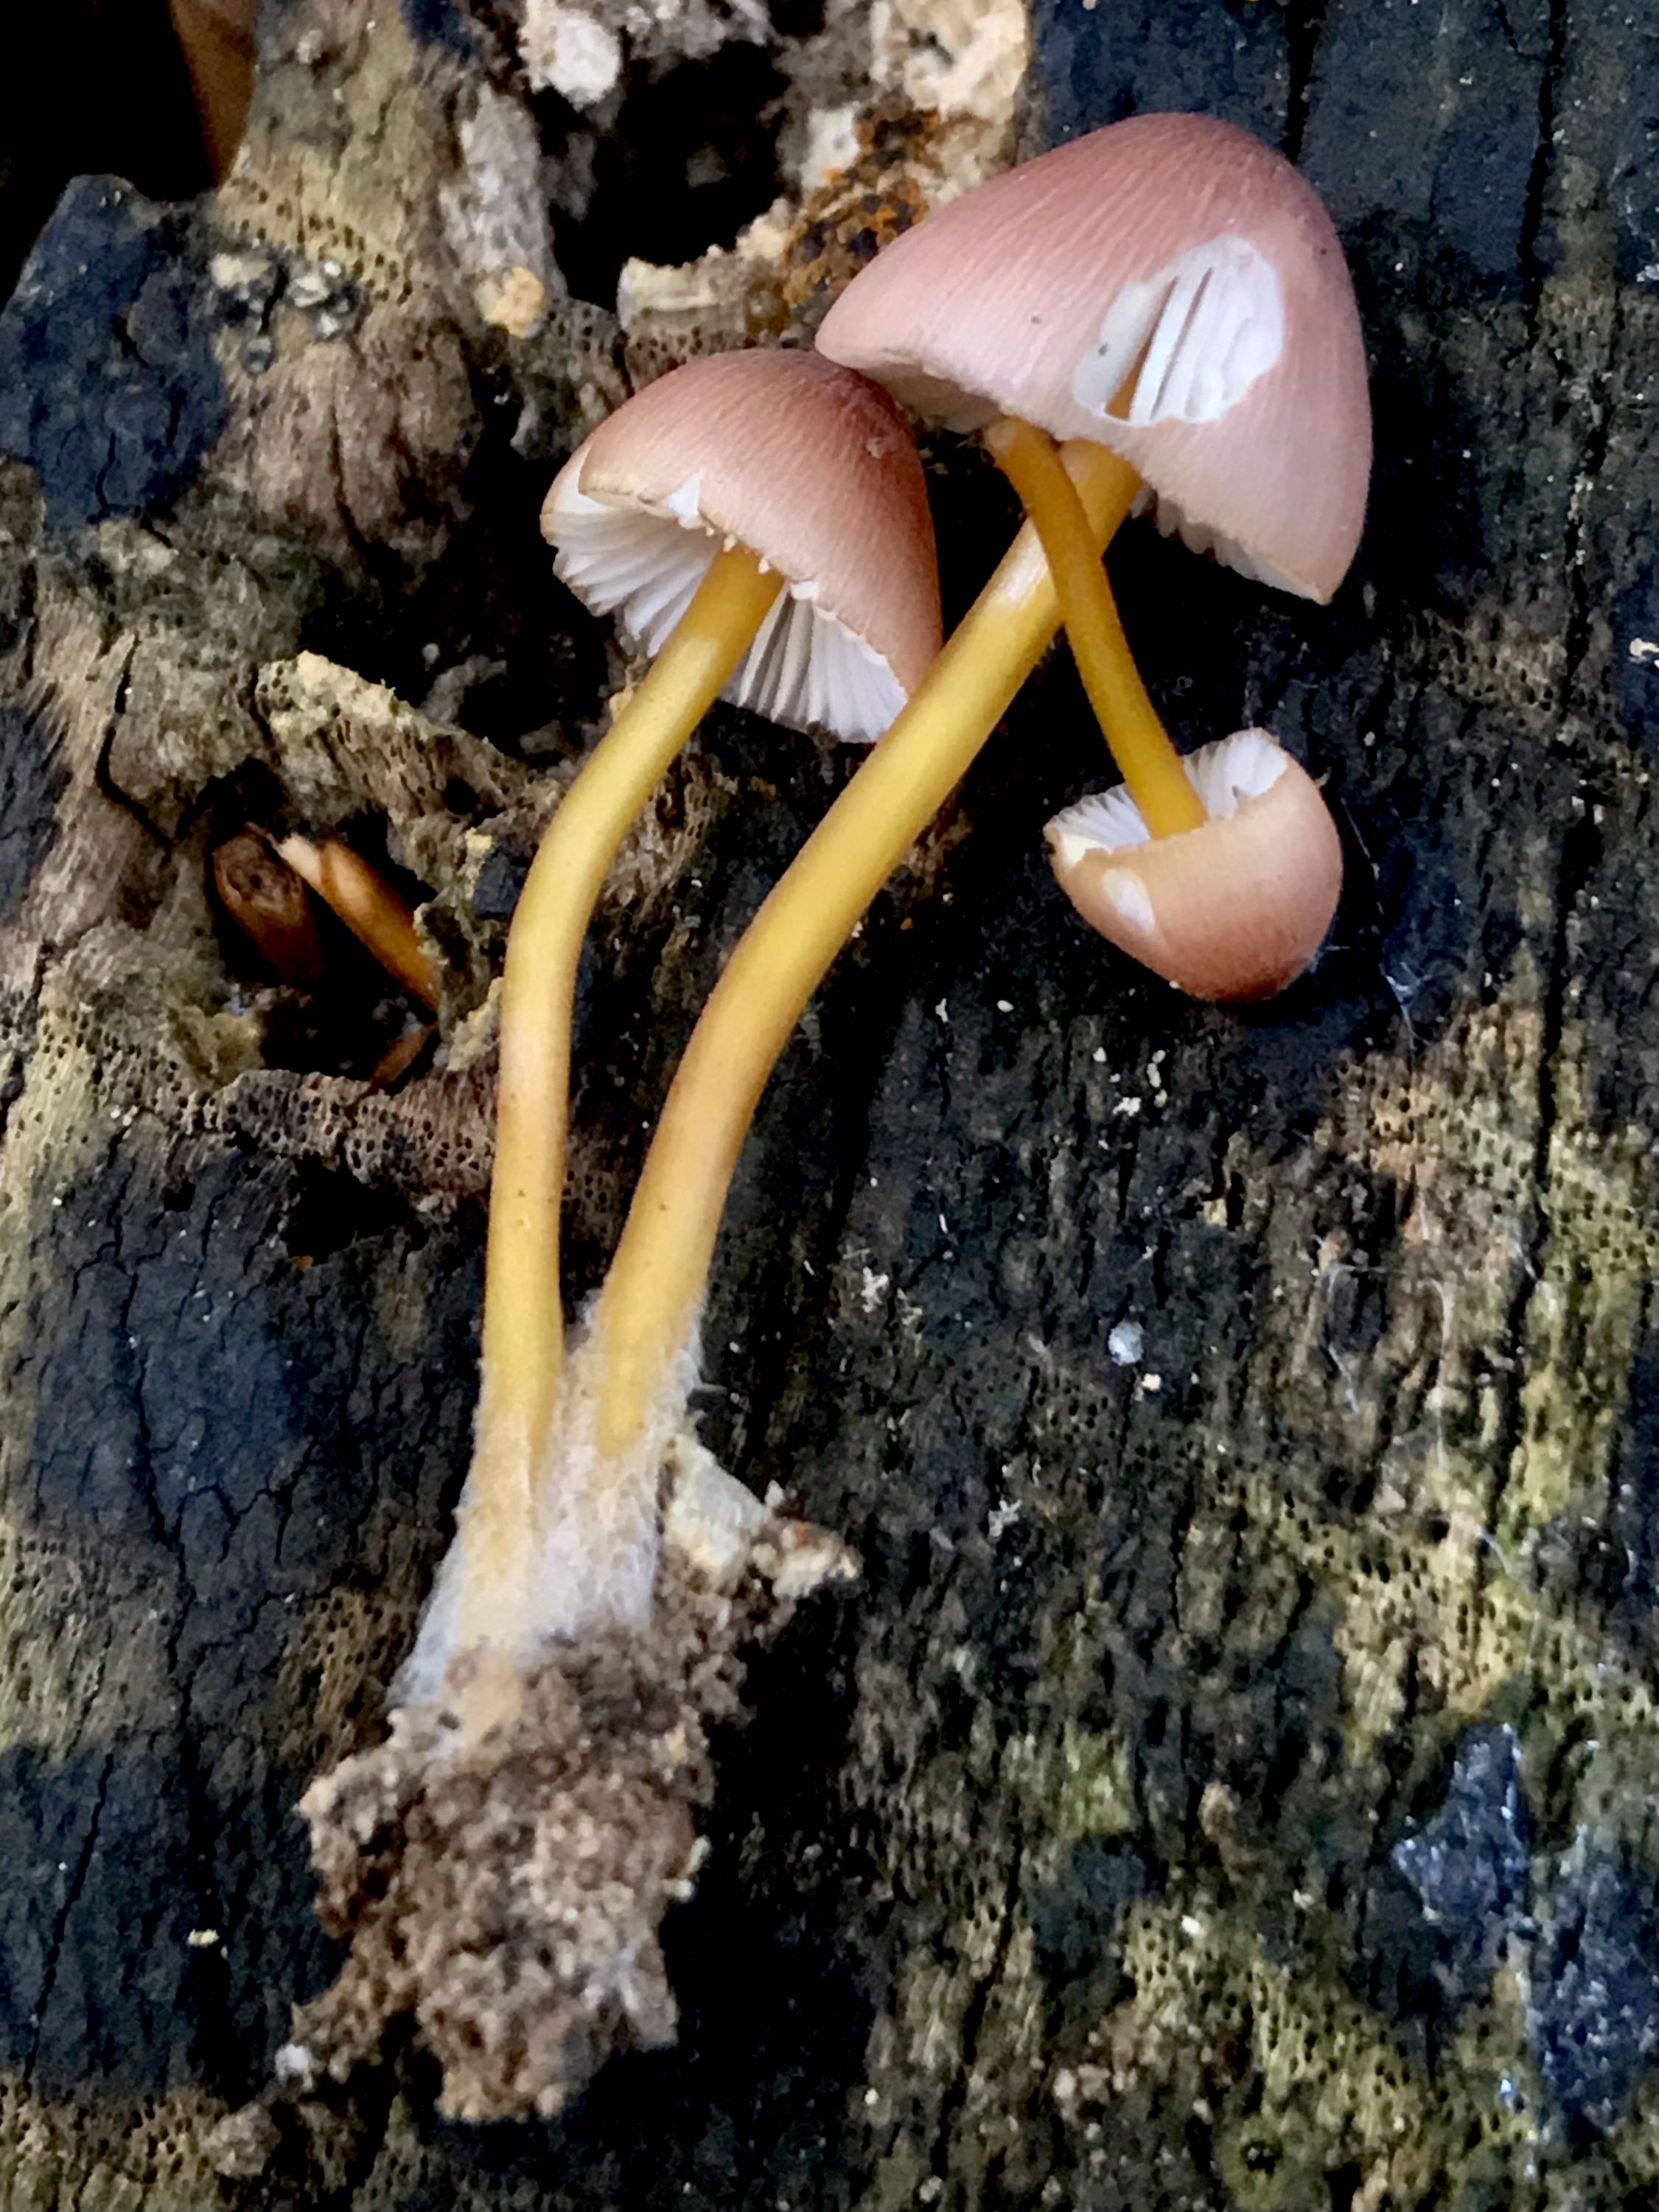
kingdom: Fungi
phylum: Basidiomycota
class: Agaricomycetes
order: Agaricales
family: Mycenaceae
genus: Mycena
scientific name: Mycena renati
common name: smuk huesvamp
